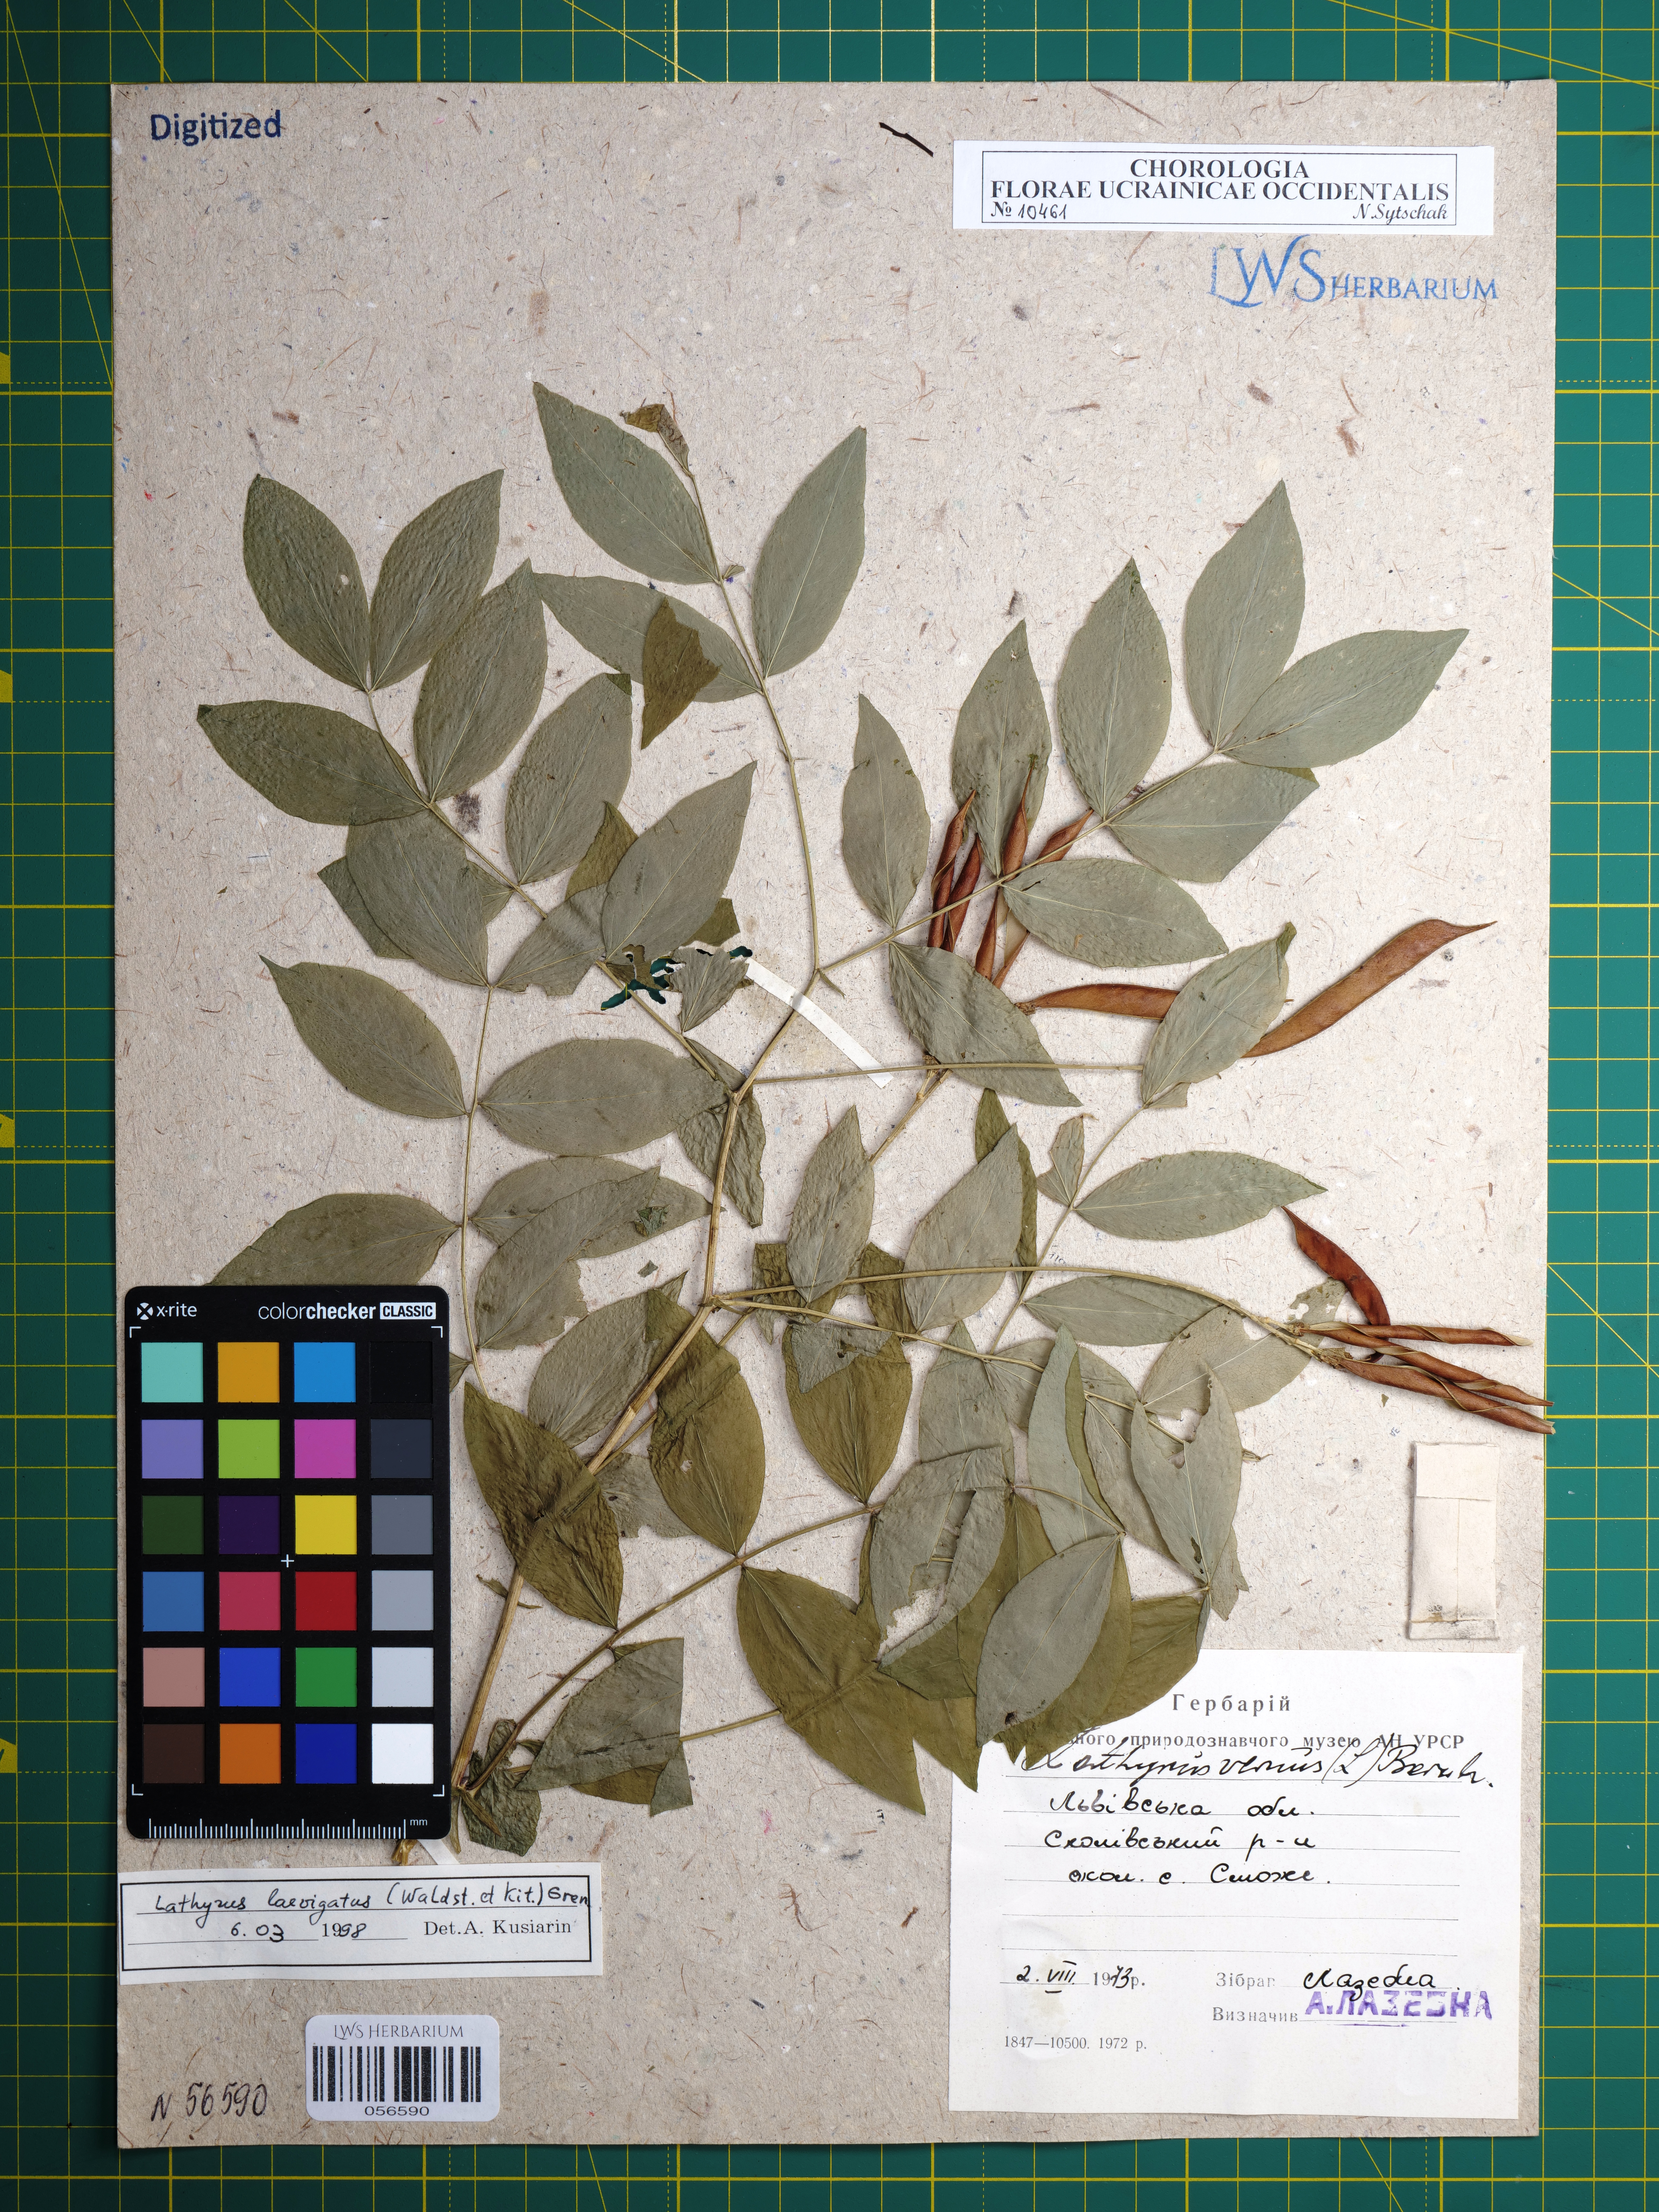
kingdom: Plantae
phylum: Tracheophyta
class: Magnoliopsida
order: Fabales
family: Fabaceae
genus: Lathyrus
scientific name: Lathyrus laevigatus
